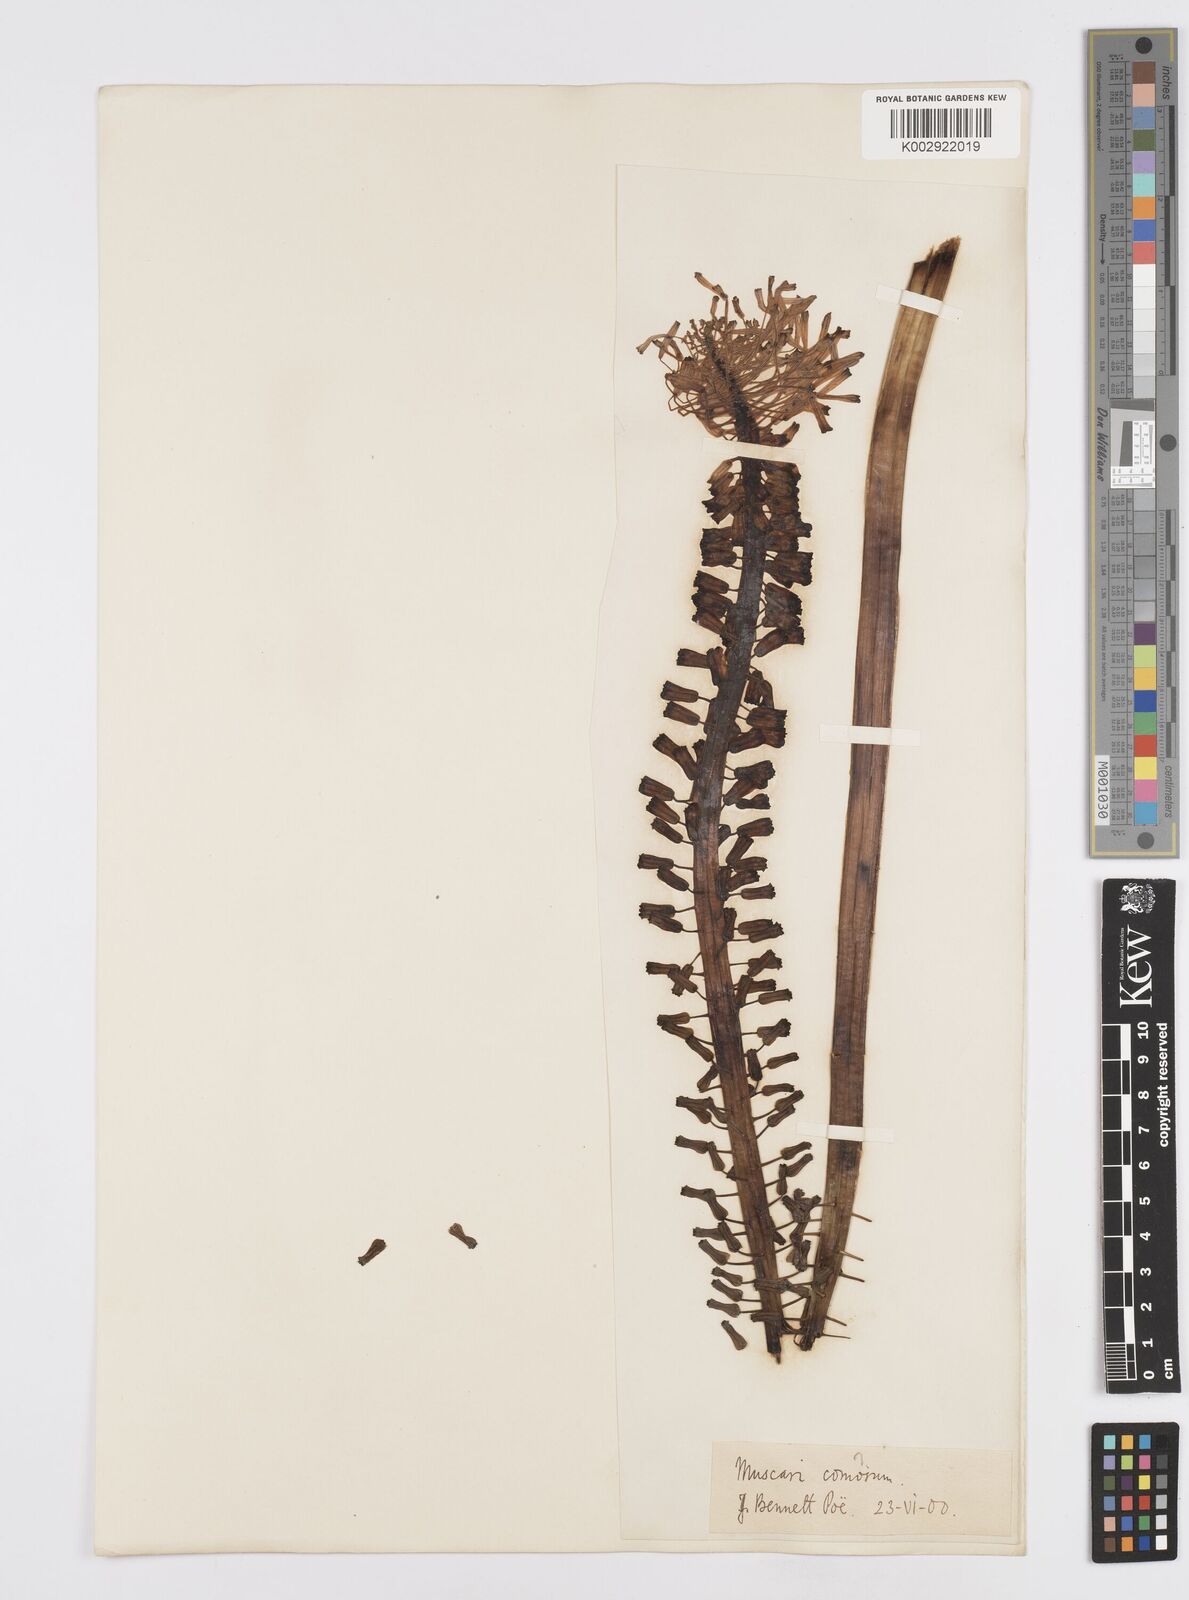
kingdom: Plantae
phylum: Tracheophyta
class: Liliopsida
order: Asparagales
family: Asparagaceae
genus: Muscari
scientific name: Muscari tenuiflorum
